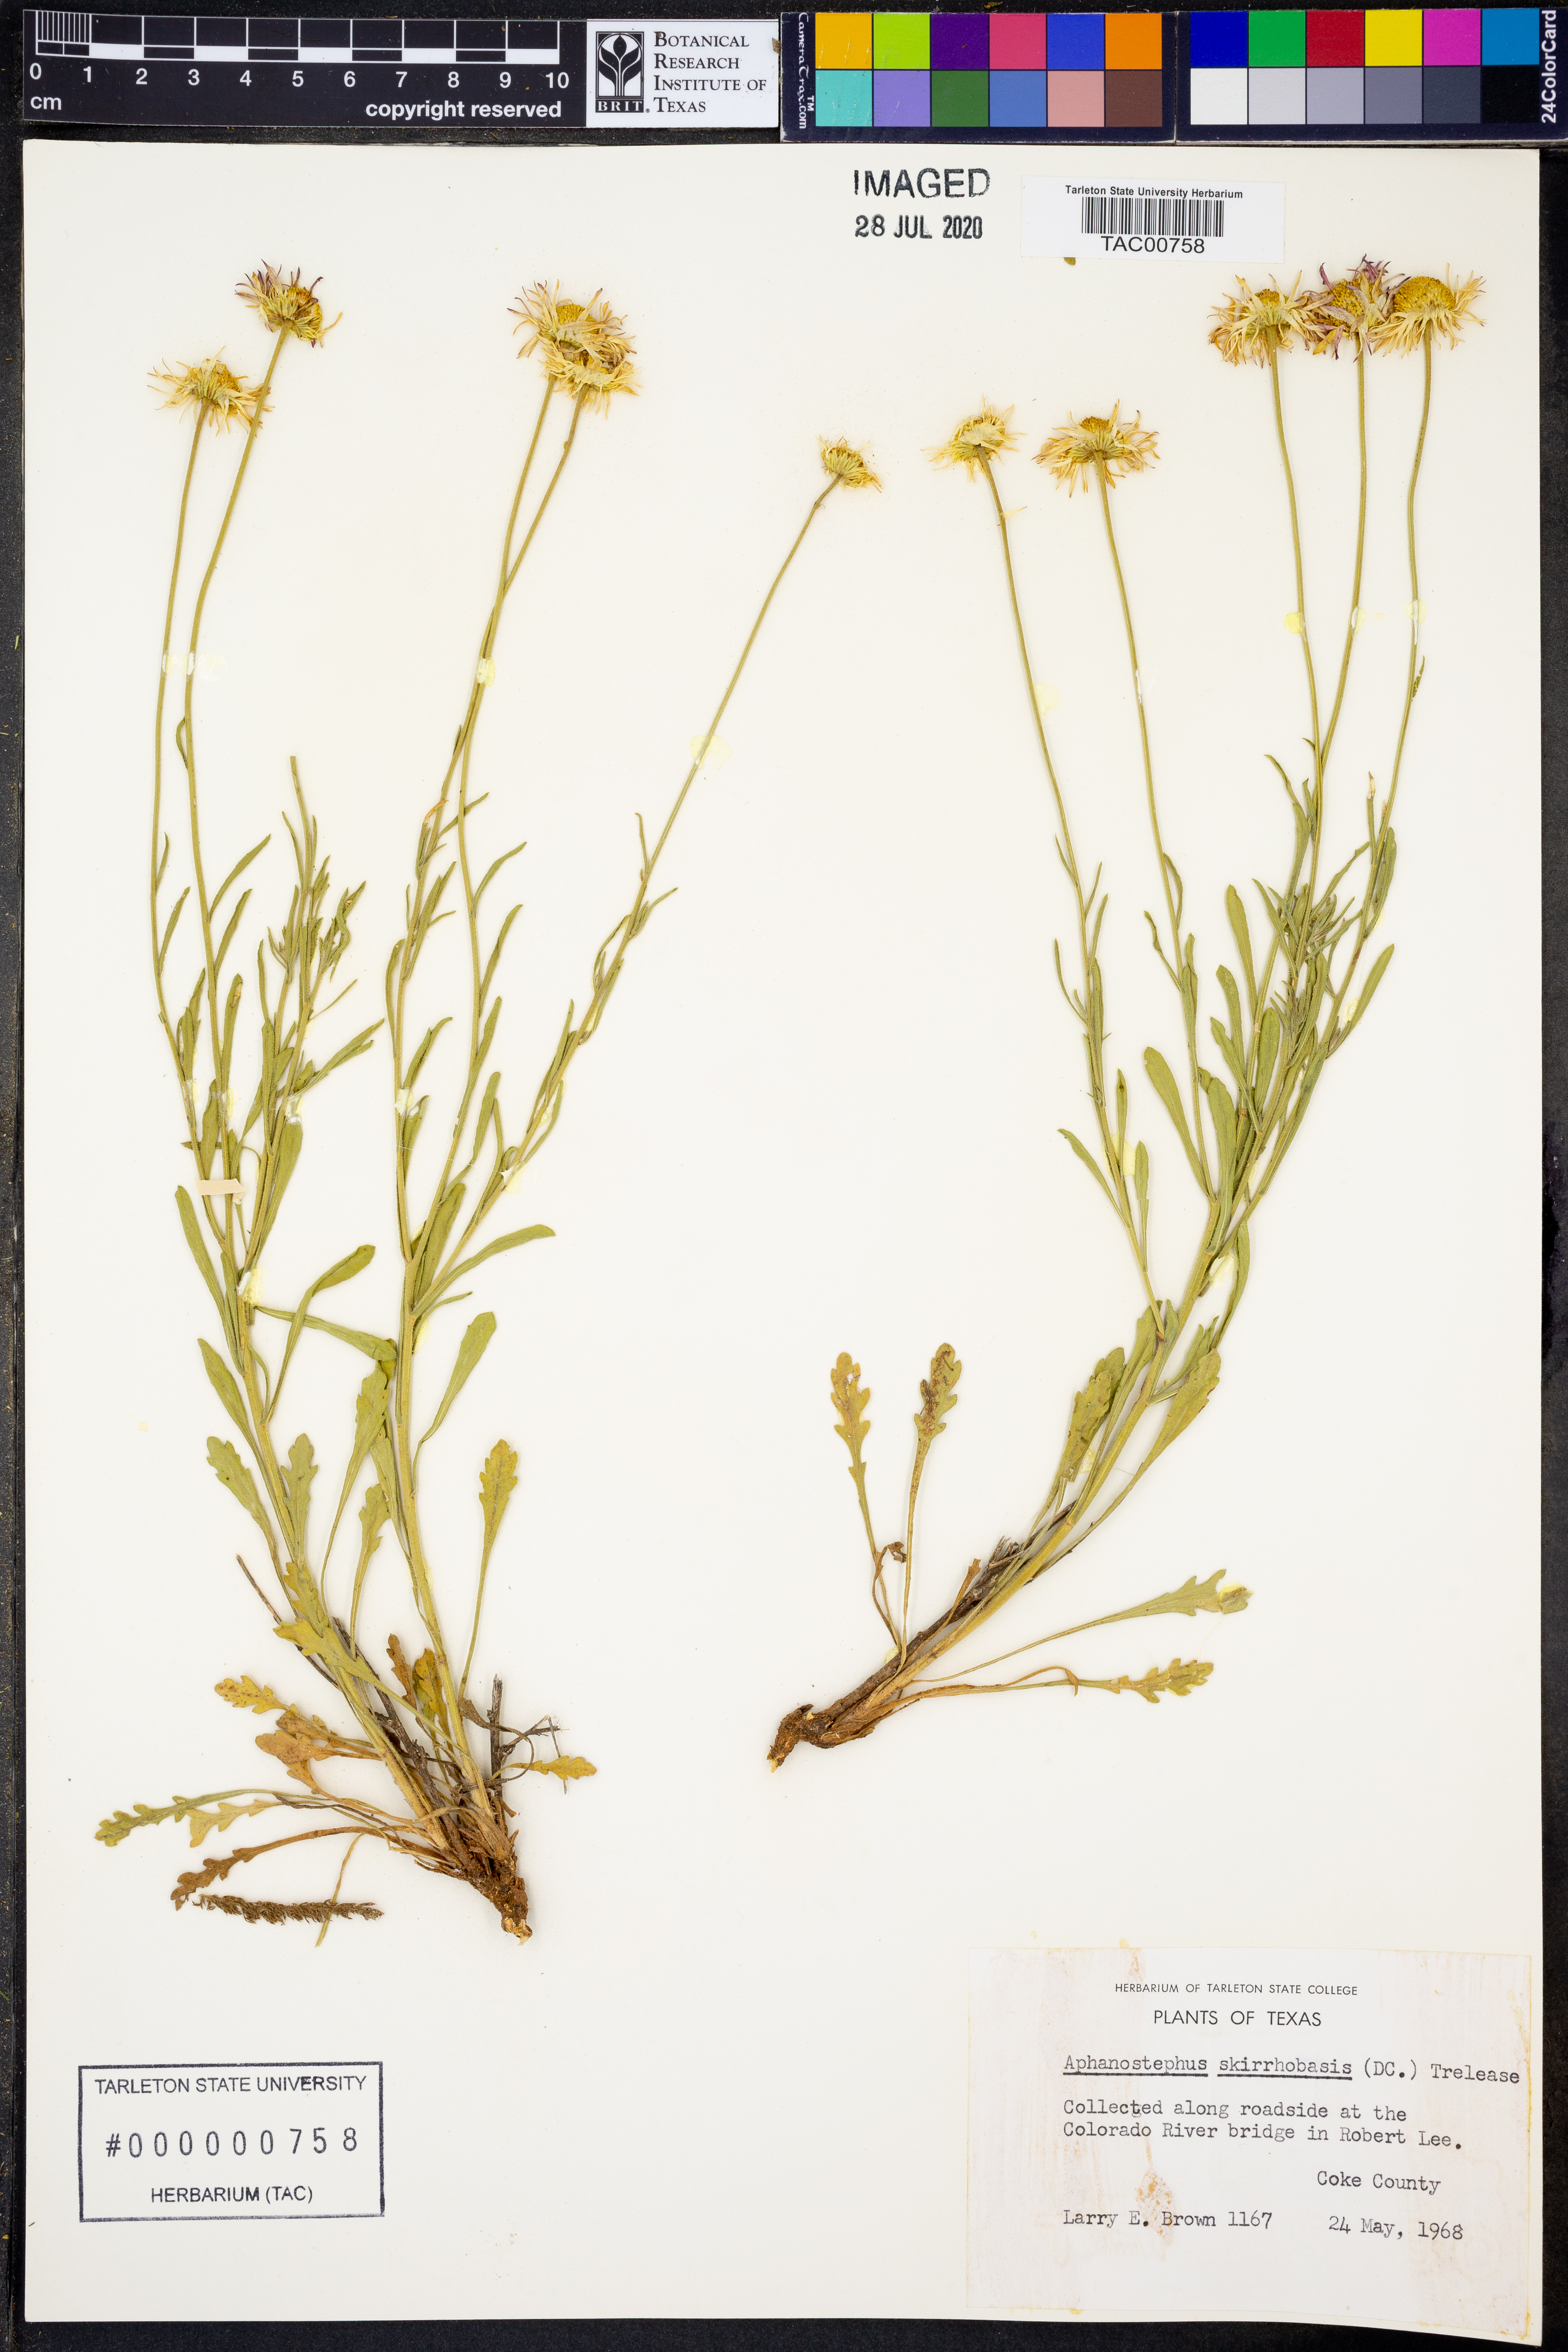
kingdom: Plantae
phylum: Tracheophyta
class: Magnoliopsida
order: Asterales
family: Asteraceae
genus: Aphanostephus
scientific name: Aphanostephus skirrhobasis
